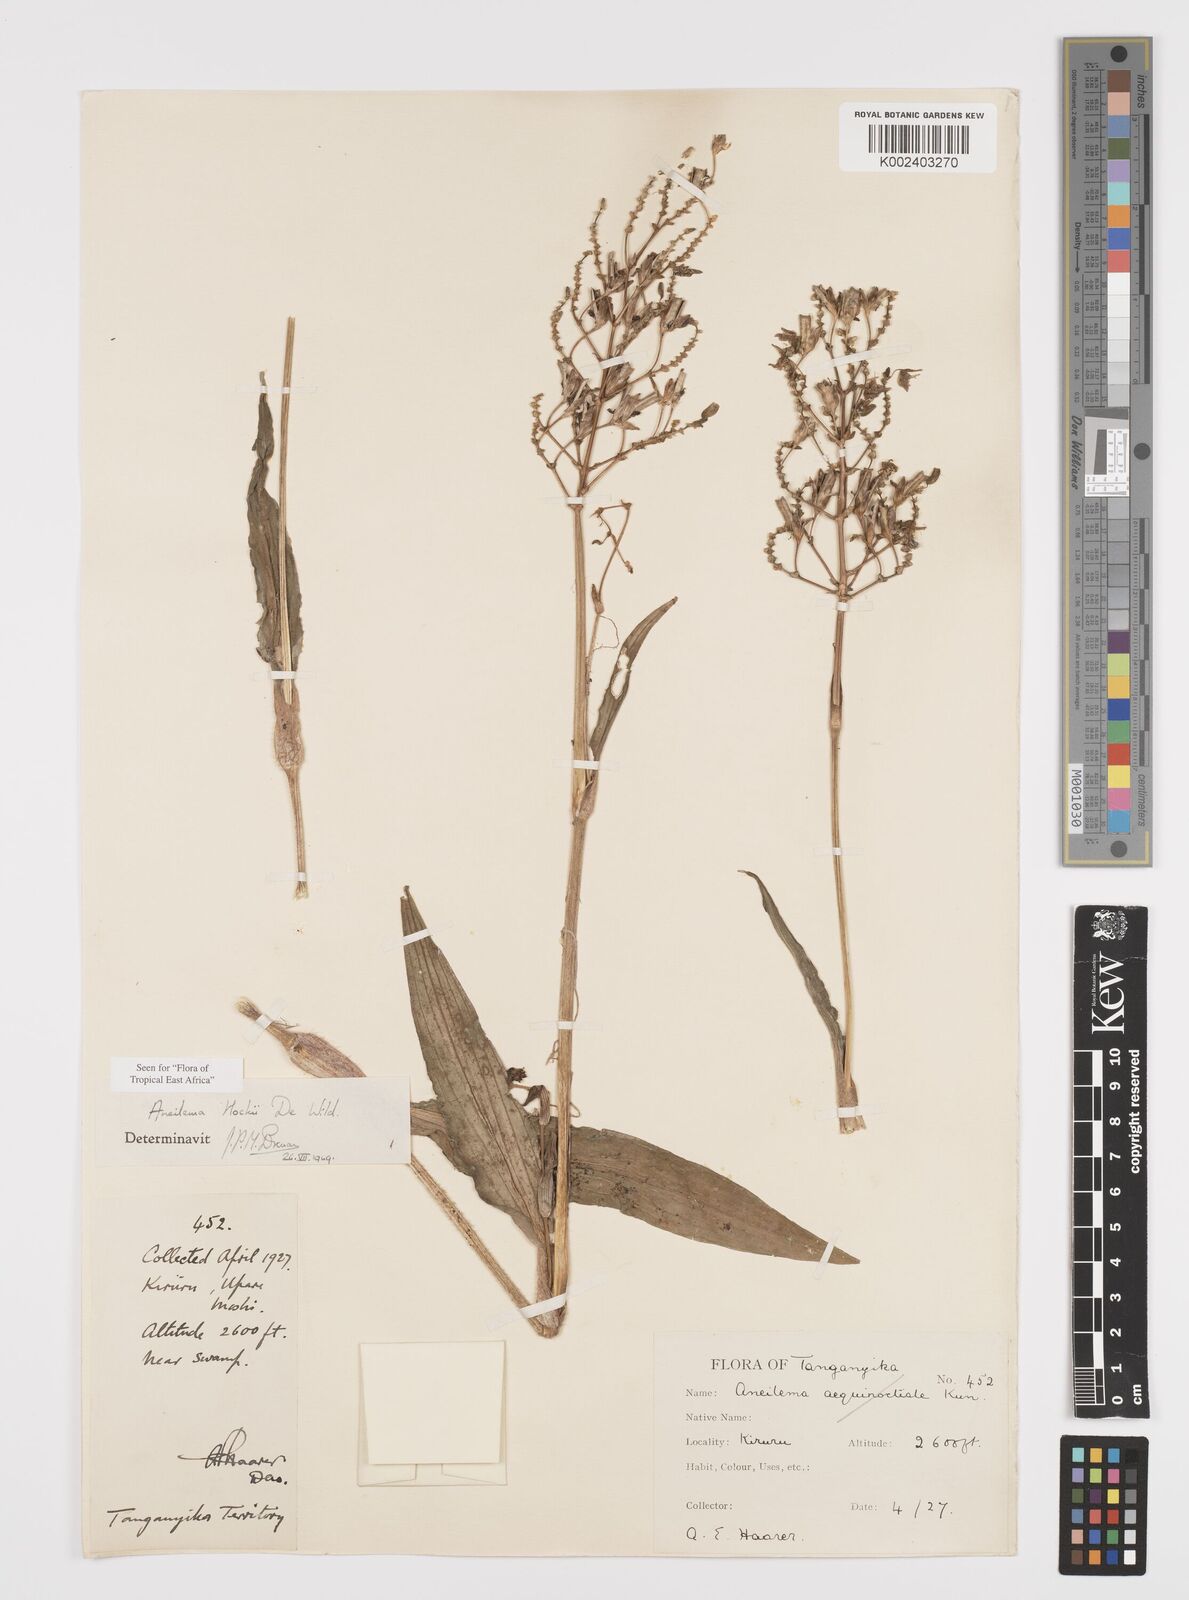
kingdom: Plantae
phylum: Tracheophyta
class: Liliopsida
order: Commelinales
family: Commelinaceae
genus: Aneilema
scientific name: Aneilema hockii
